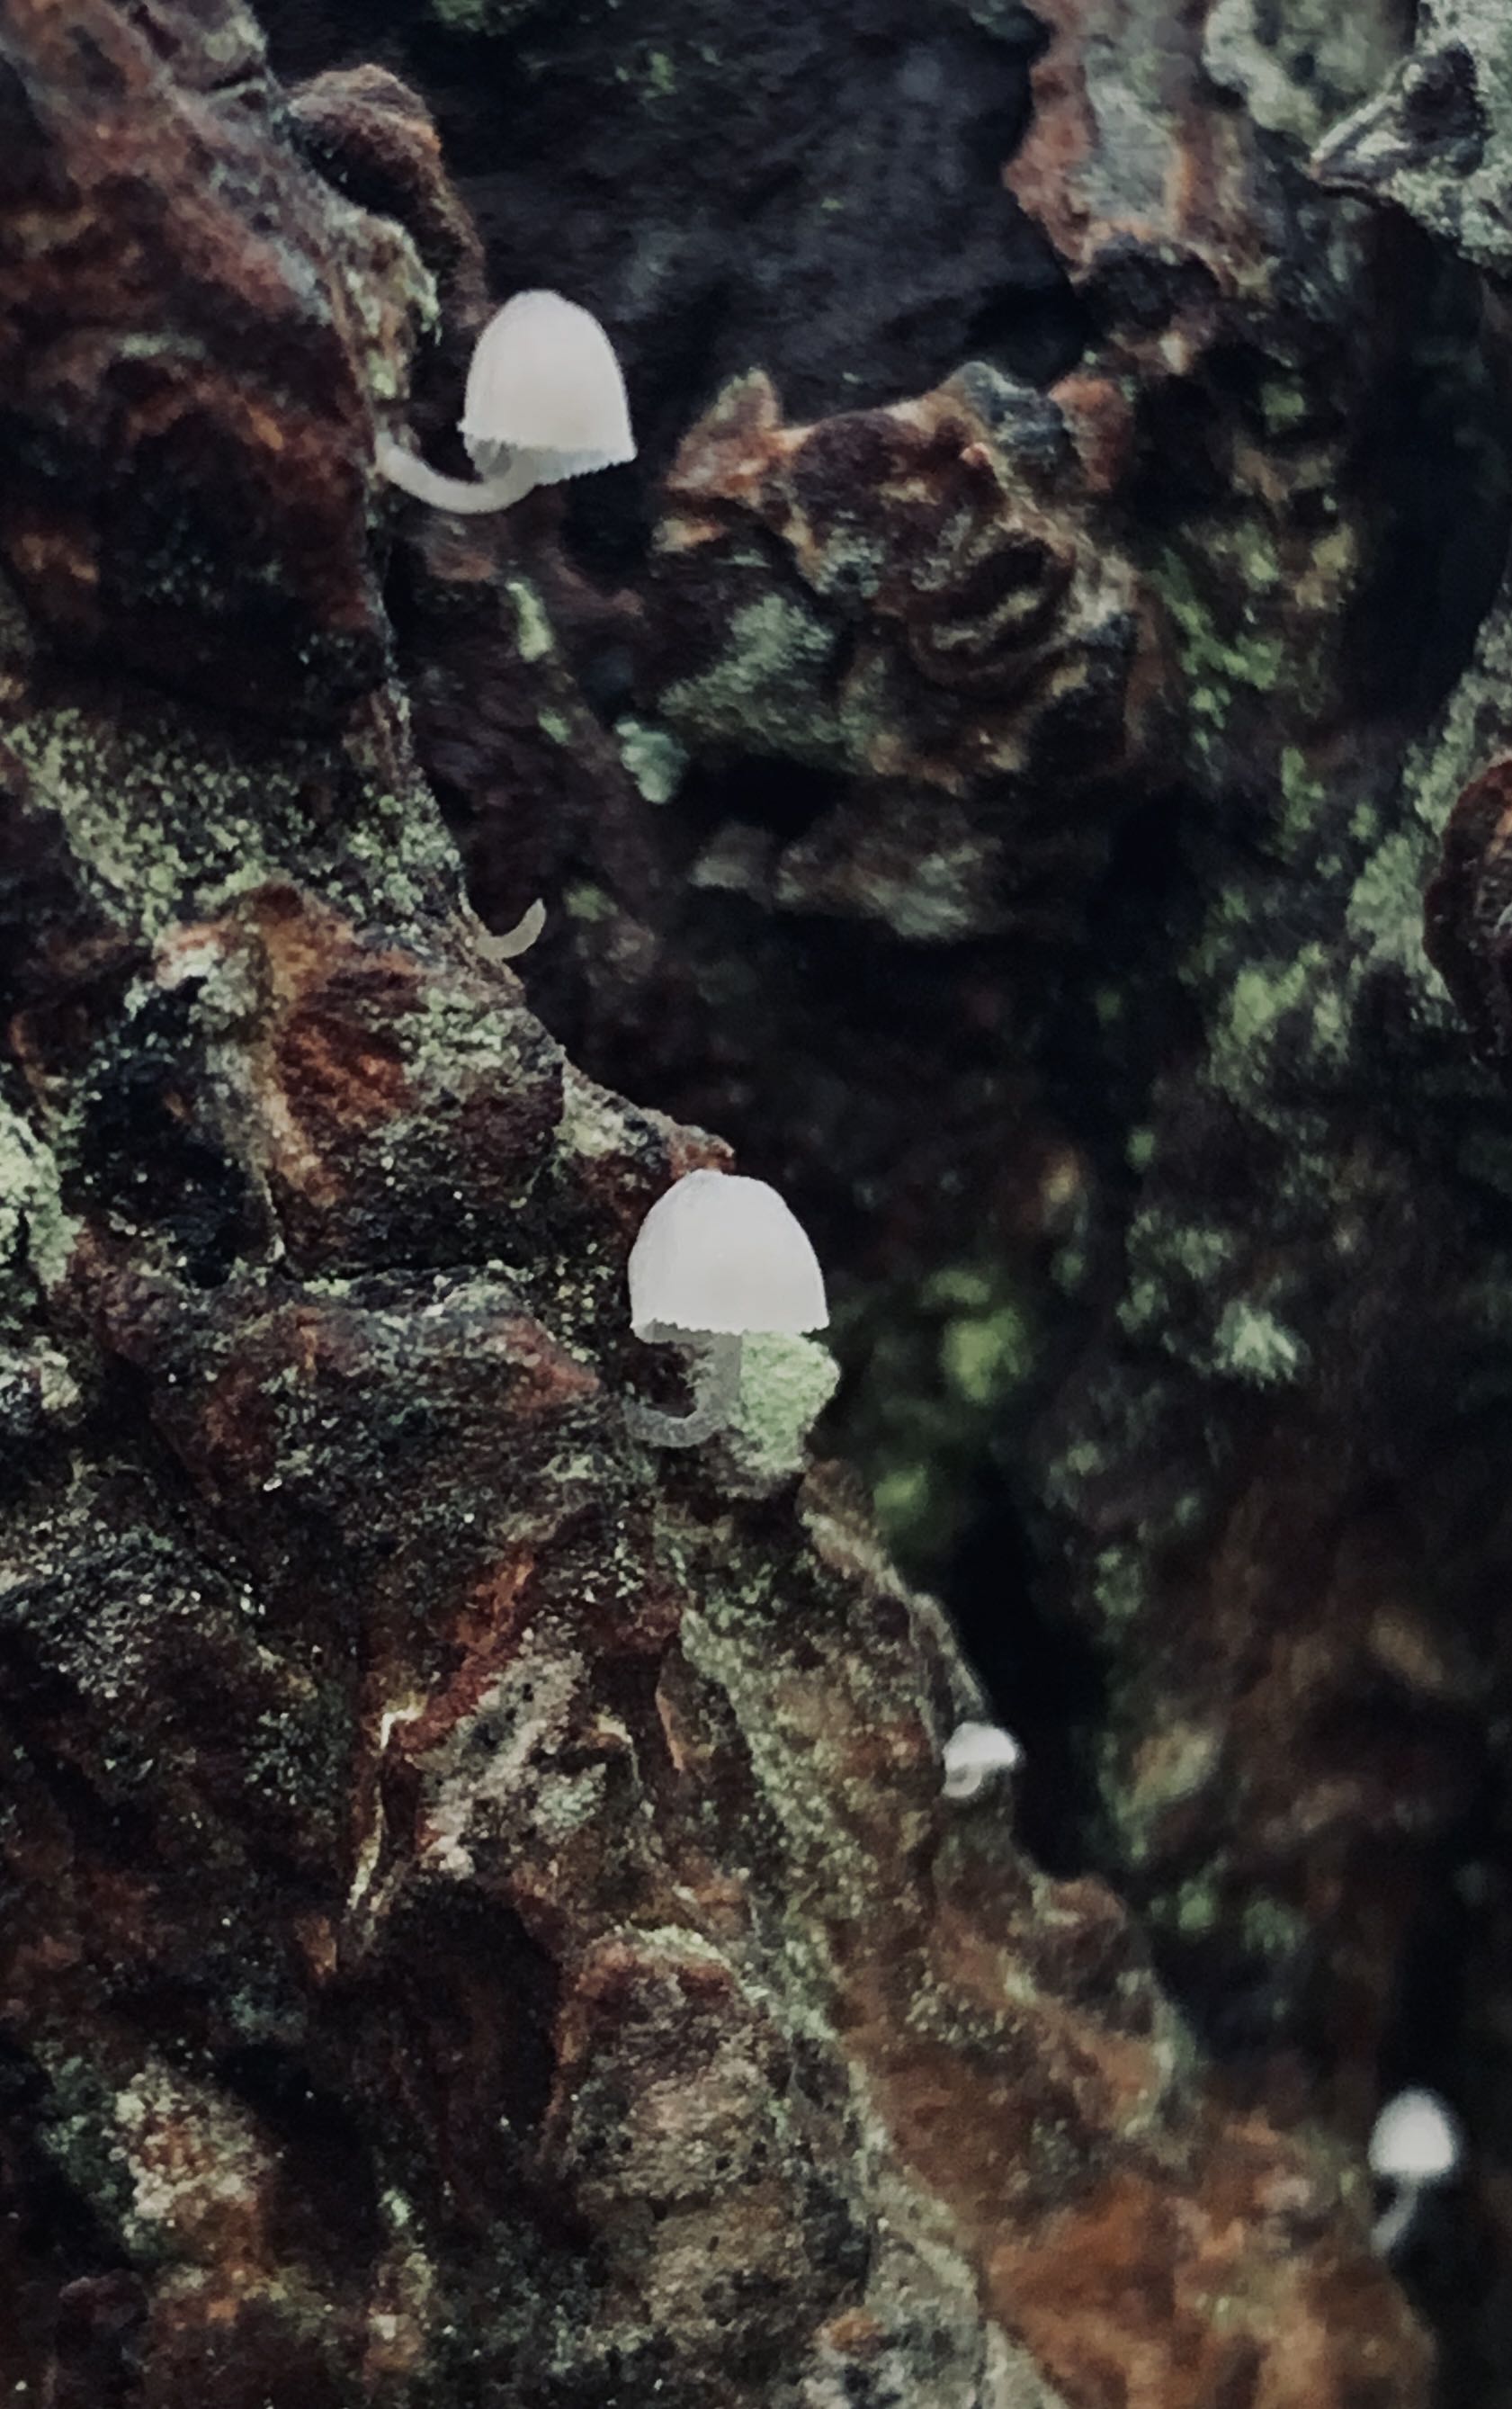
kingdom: Fungi
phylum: Basidiomycota
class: Agaricomycetes
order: Agaricales
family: Mycenaceae
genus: Mycena
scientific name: Mycena pseudocorticola
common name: gråblå bark-huesvamp
